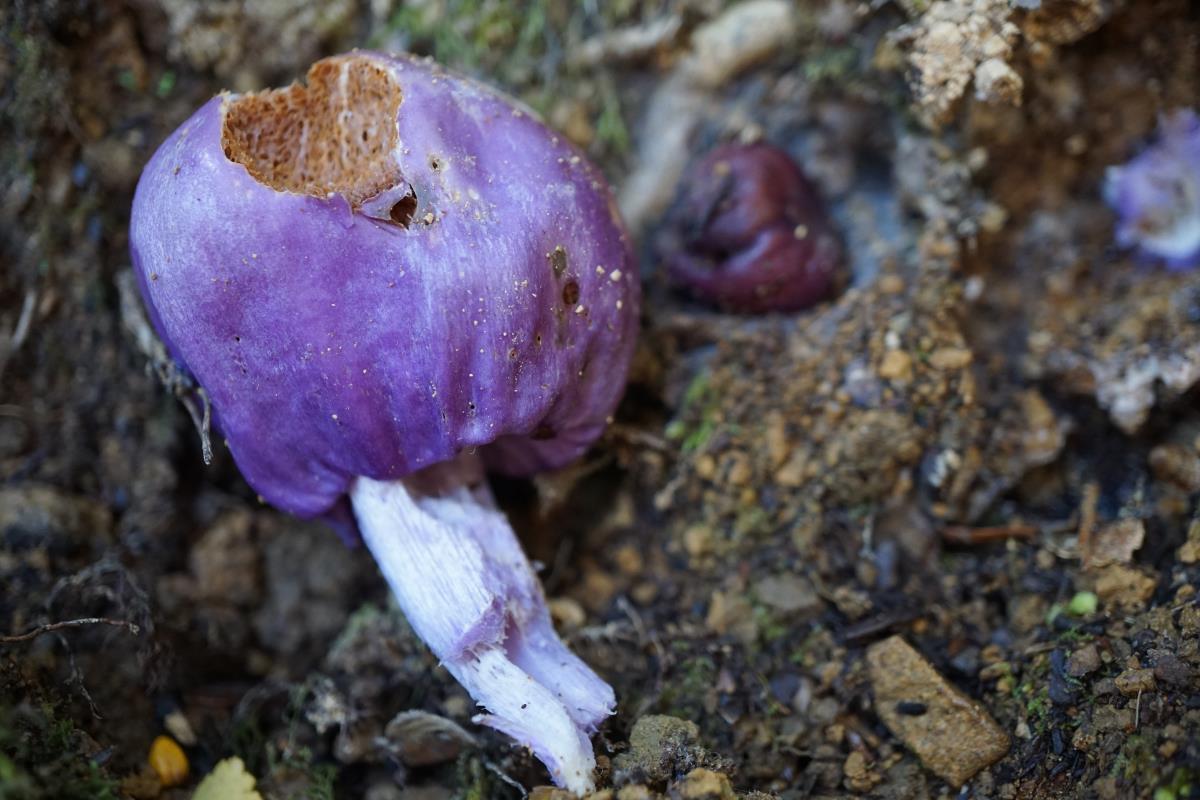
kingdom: Fungi
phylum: Basidiomycota
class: Agaricomycetes
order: Agaricales
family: Cortinariaceae
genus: Cortinarius
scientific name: Cortinarius
